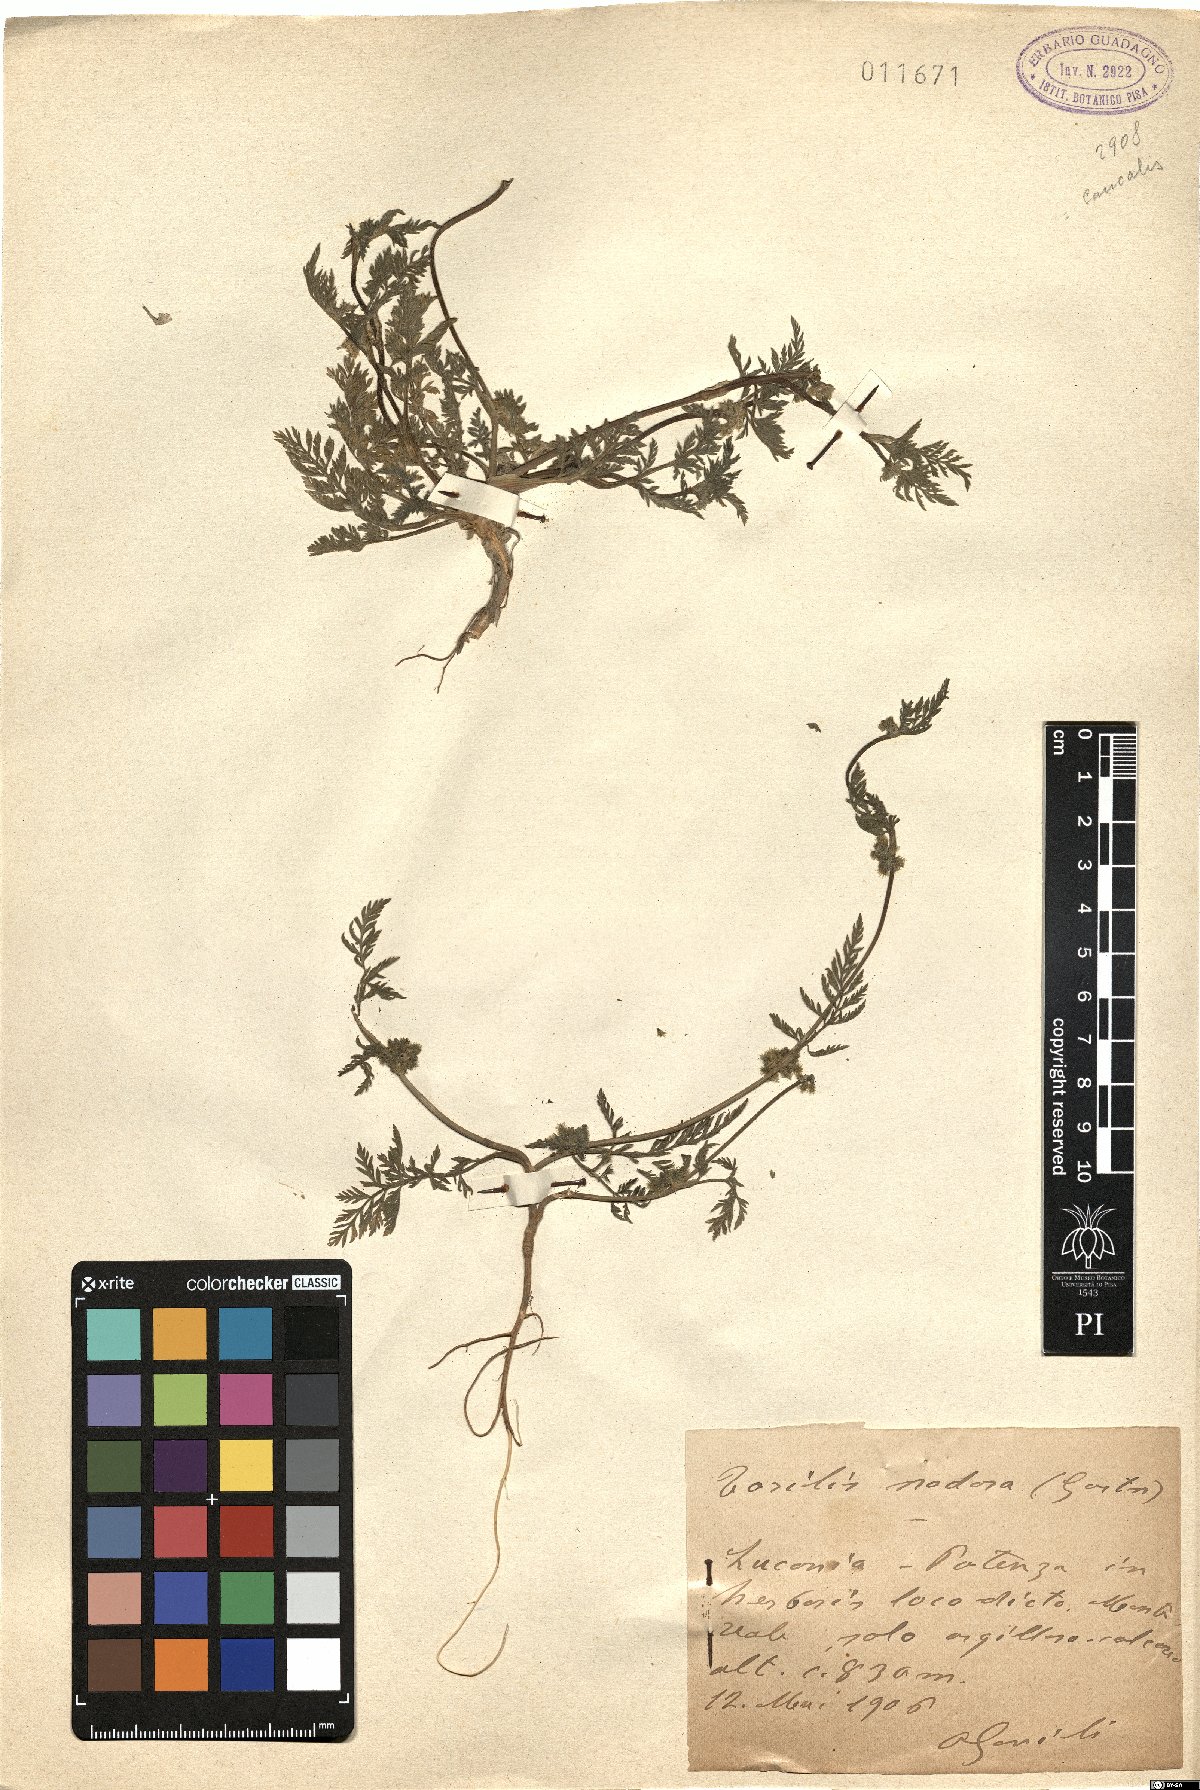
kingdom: Plantae
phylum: Tracheophyta
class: Magnoliopsida
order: Apiales
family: Apiaceae
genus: Torilis
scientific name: Torilis nodosa
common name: Knotted hedge-parsley
